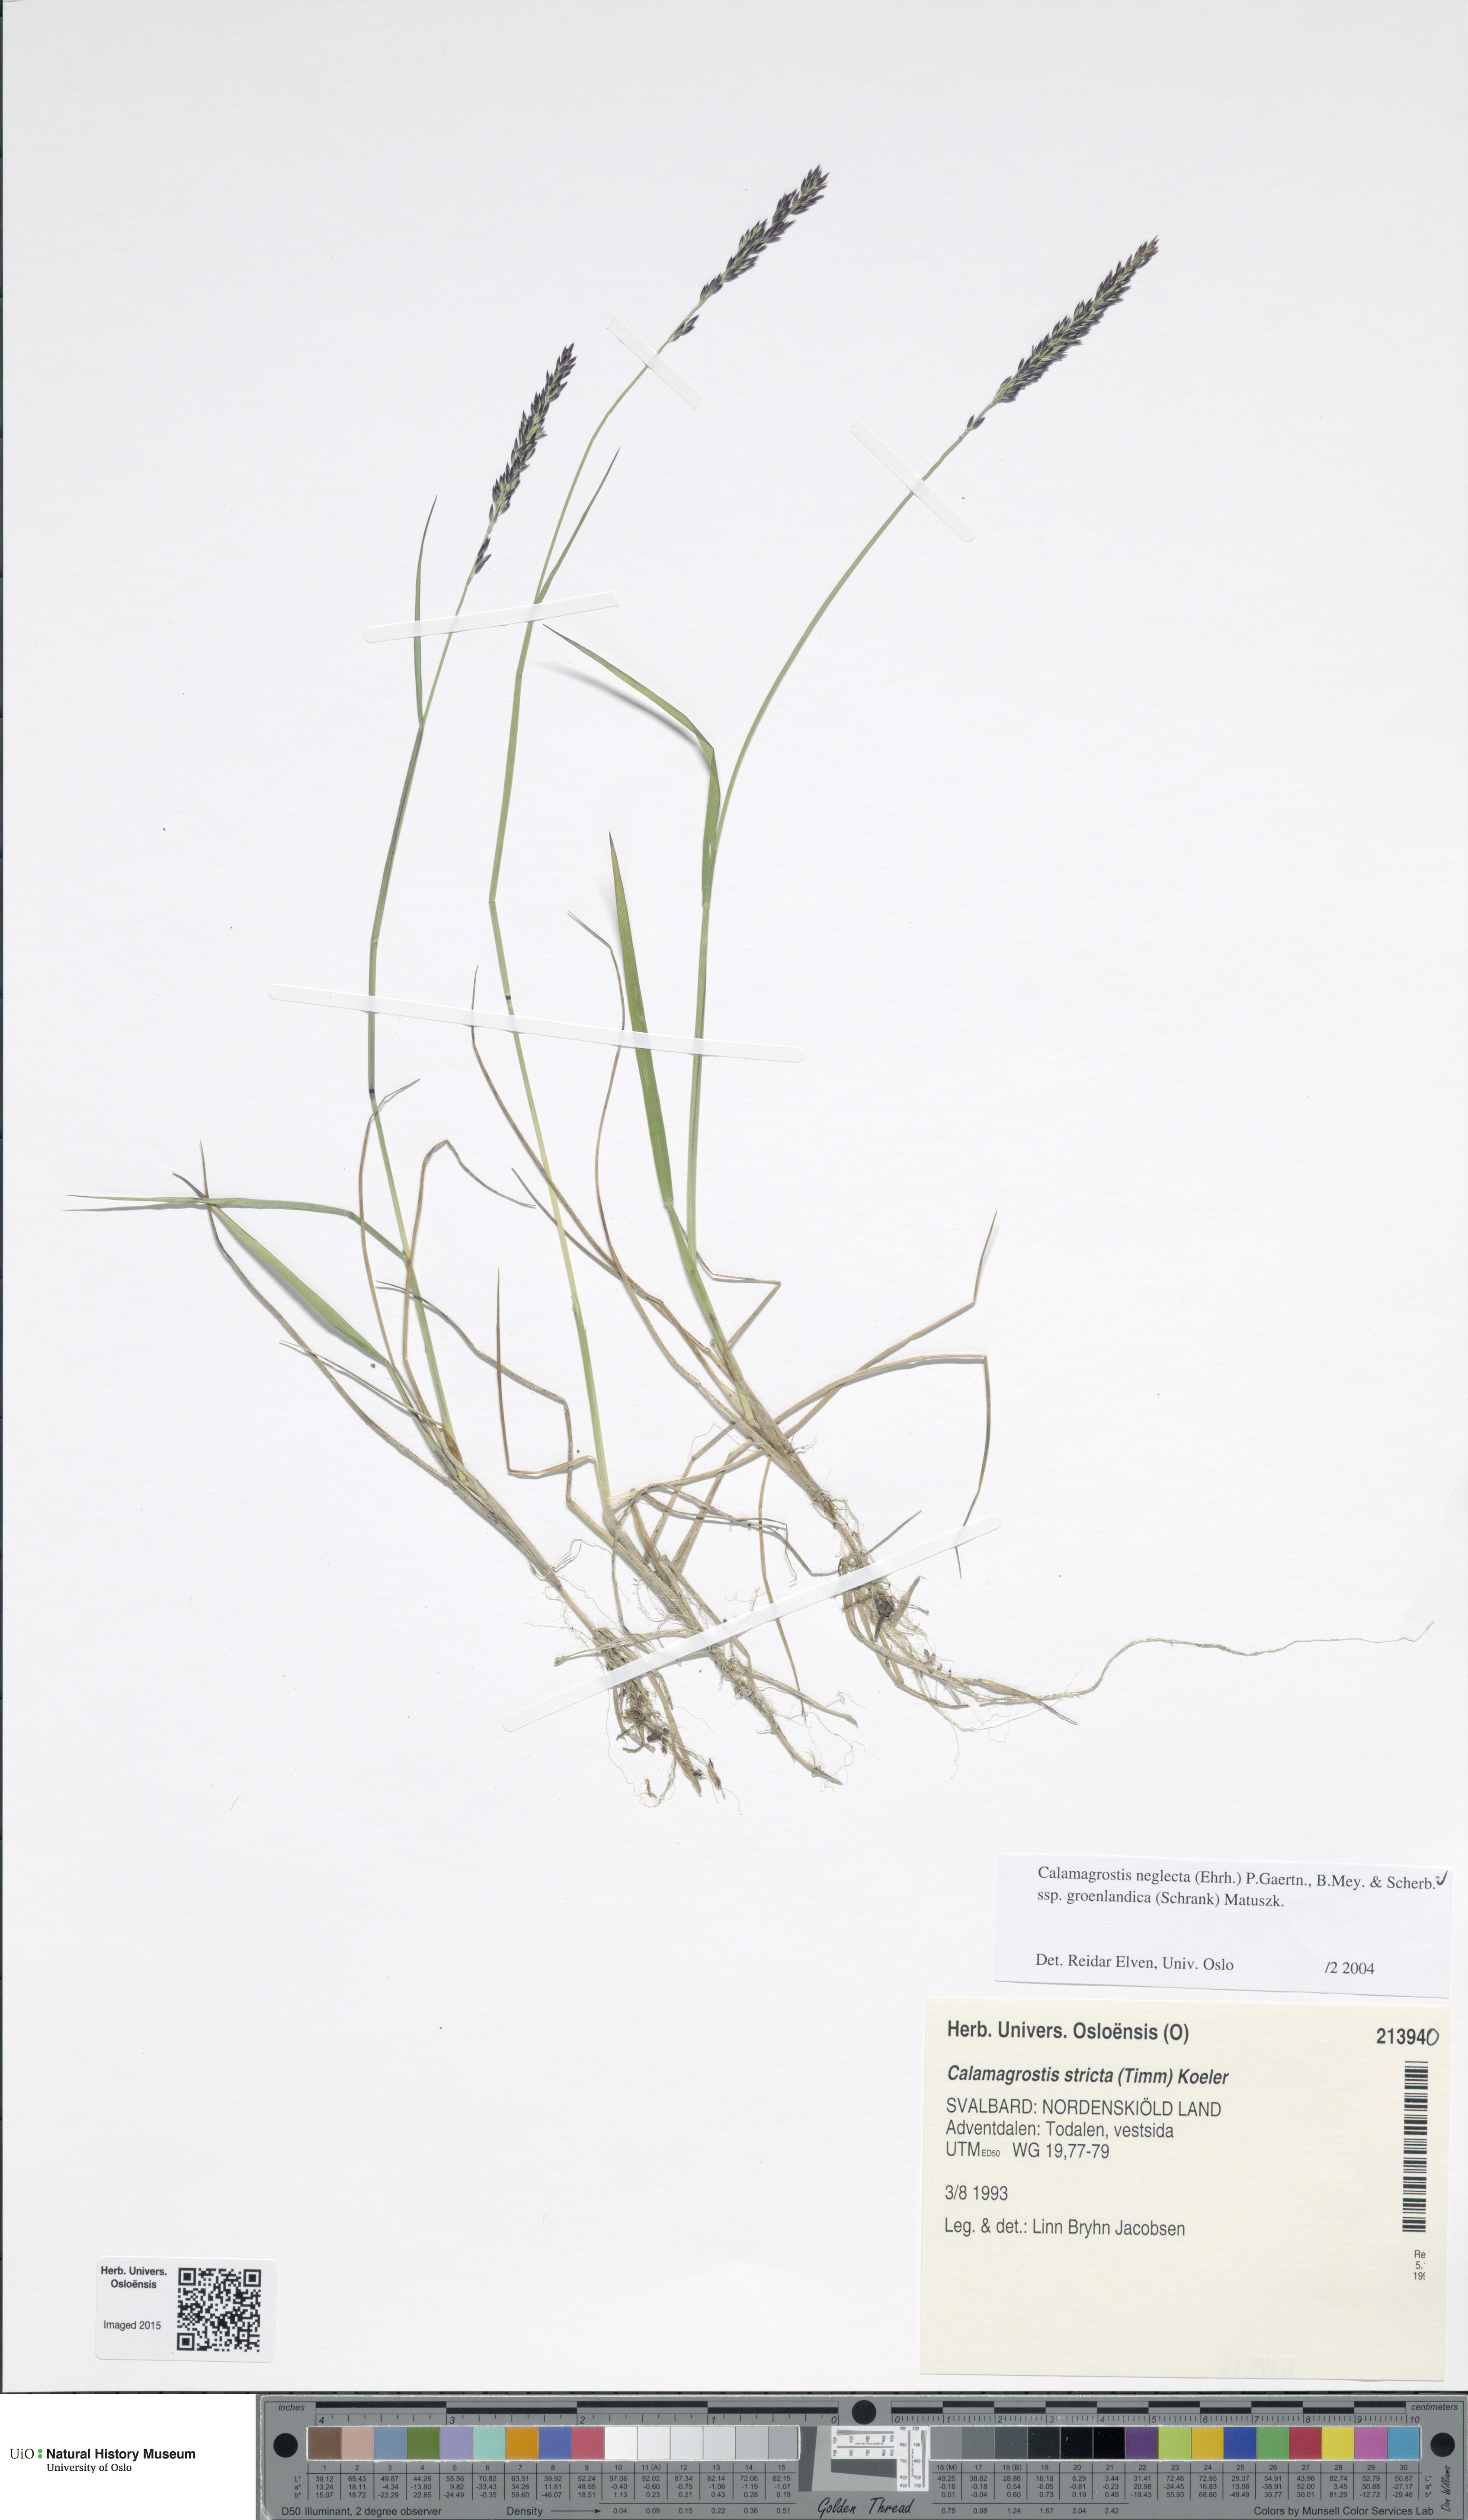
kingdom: Plantae
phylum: Tracheophyta
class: Liliopsida
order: Poales
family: Poaceae
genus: Calamagrostis
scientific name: Calamagrostis stricta
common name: Narrow small-reed
